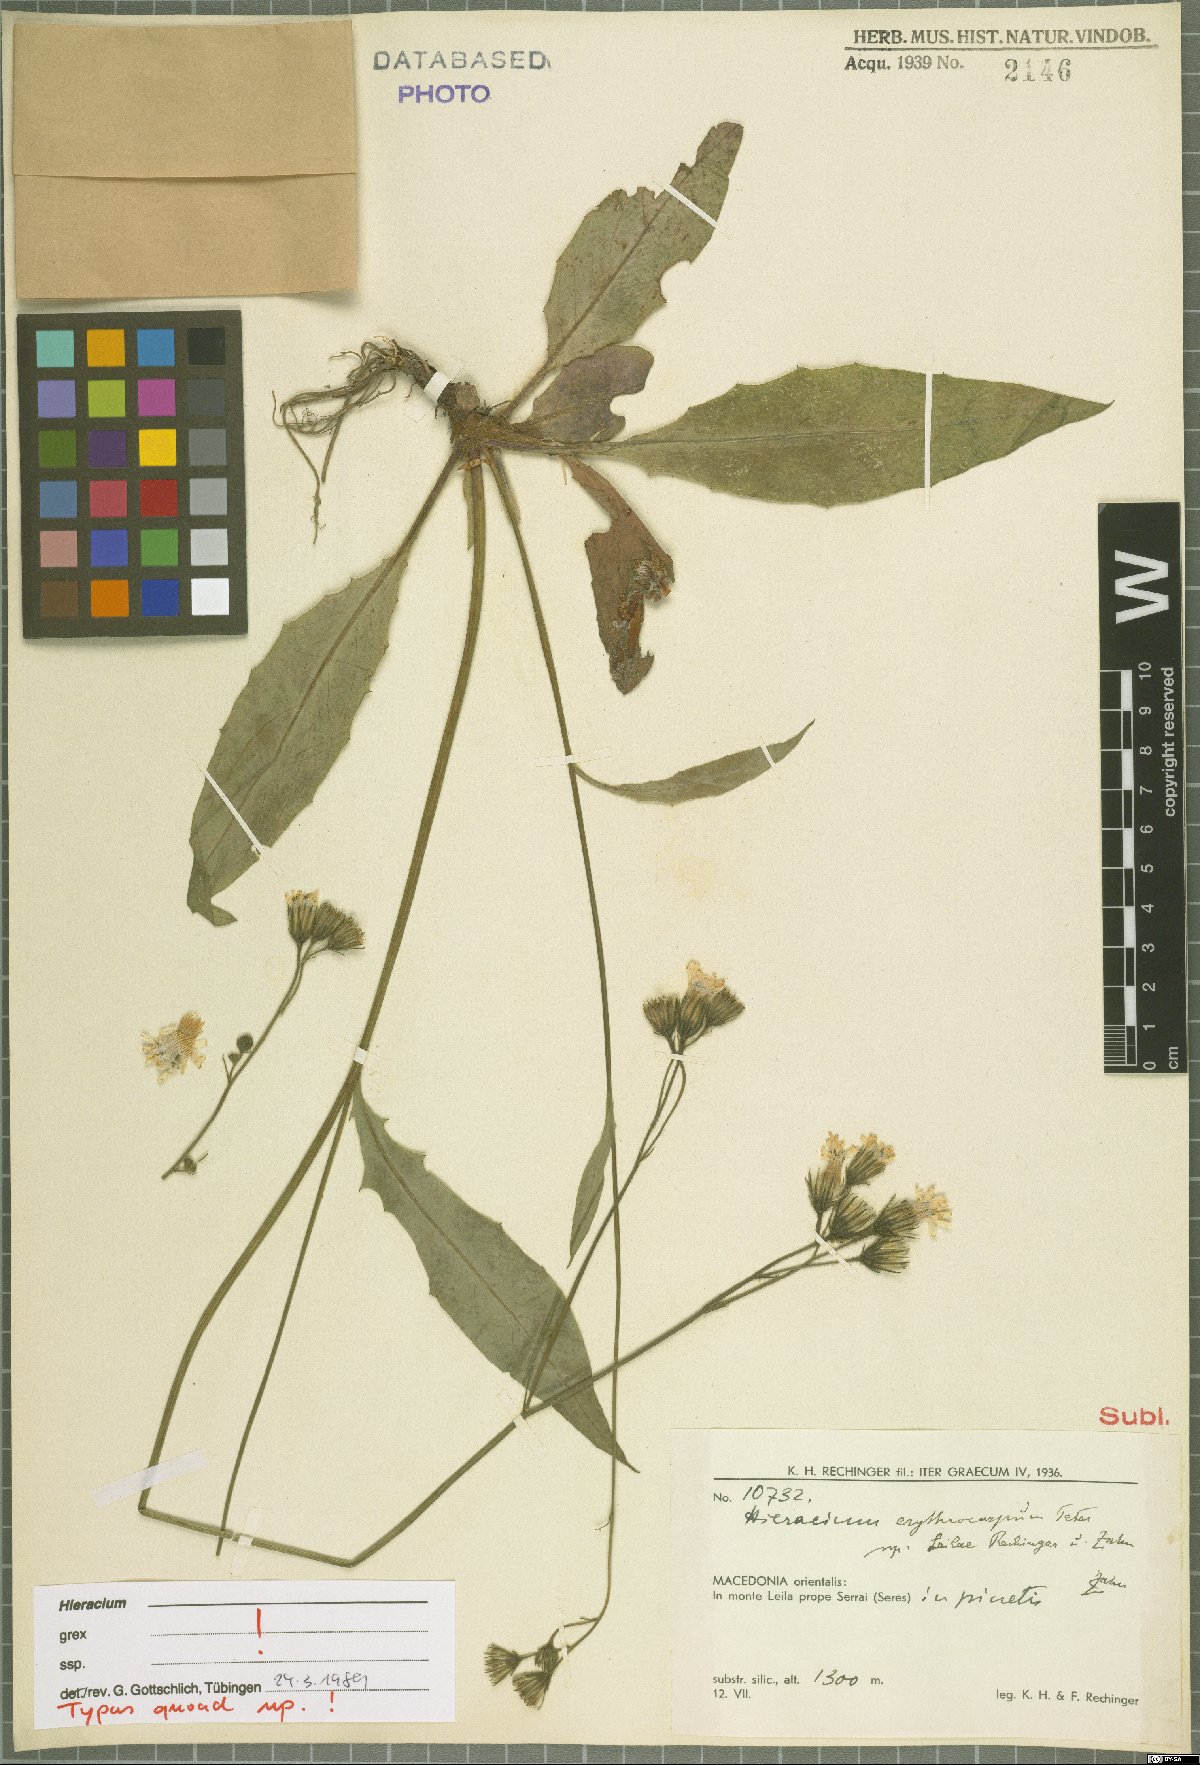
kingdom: Plantae
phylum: Tracheophyta
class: Magnoliopsida
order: Asterales
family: Asteraceae
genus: Hieracium
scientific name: Hieracium transiens
